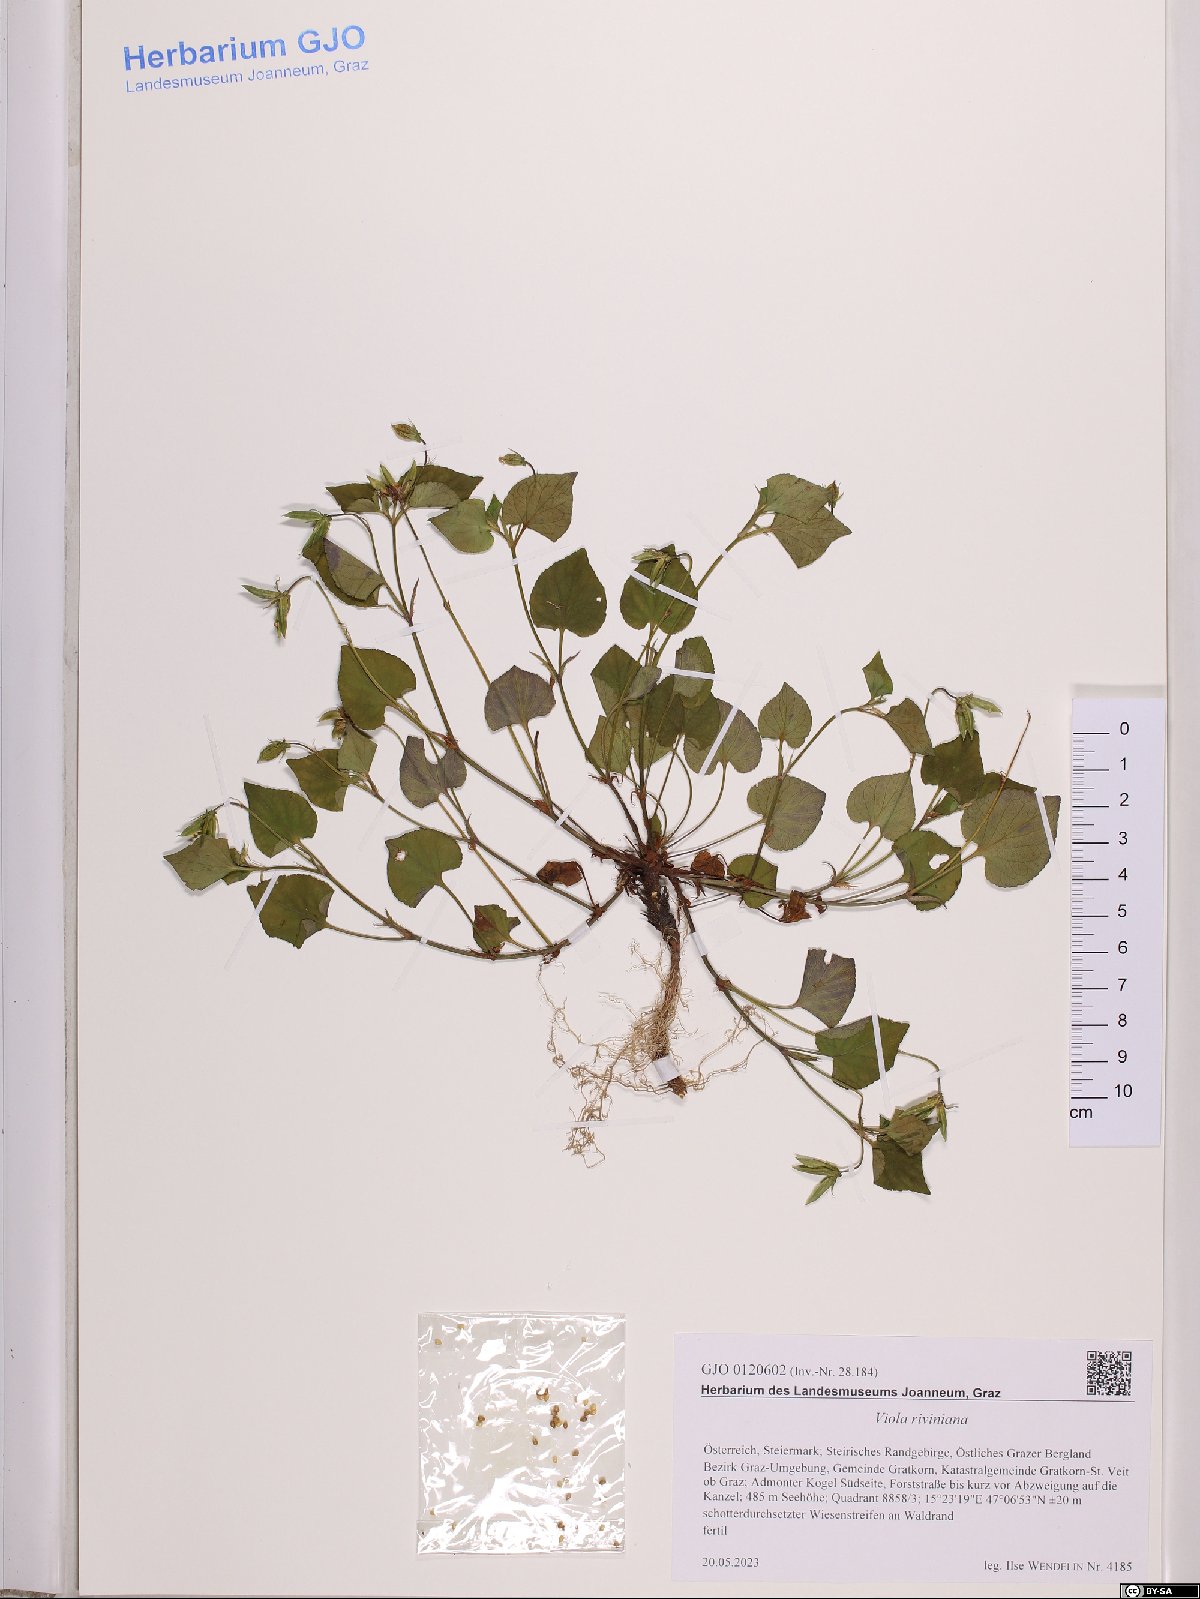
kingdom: Plantae
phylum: Tracheophyta
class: Magnoliopsida
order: Malpighiales
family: Violaceae
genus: Viola
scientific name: Viola riviniana
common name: Common dog-violet
